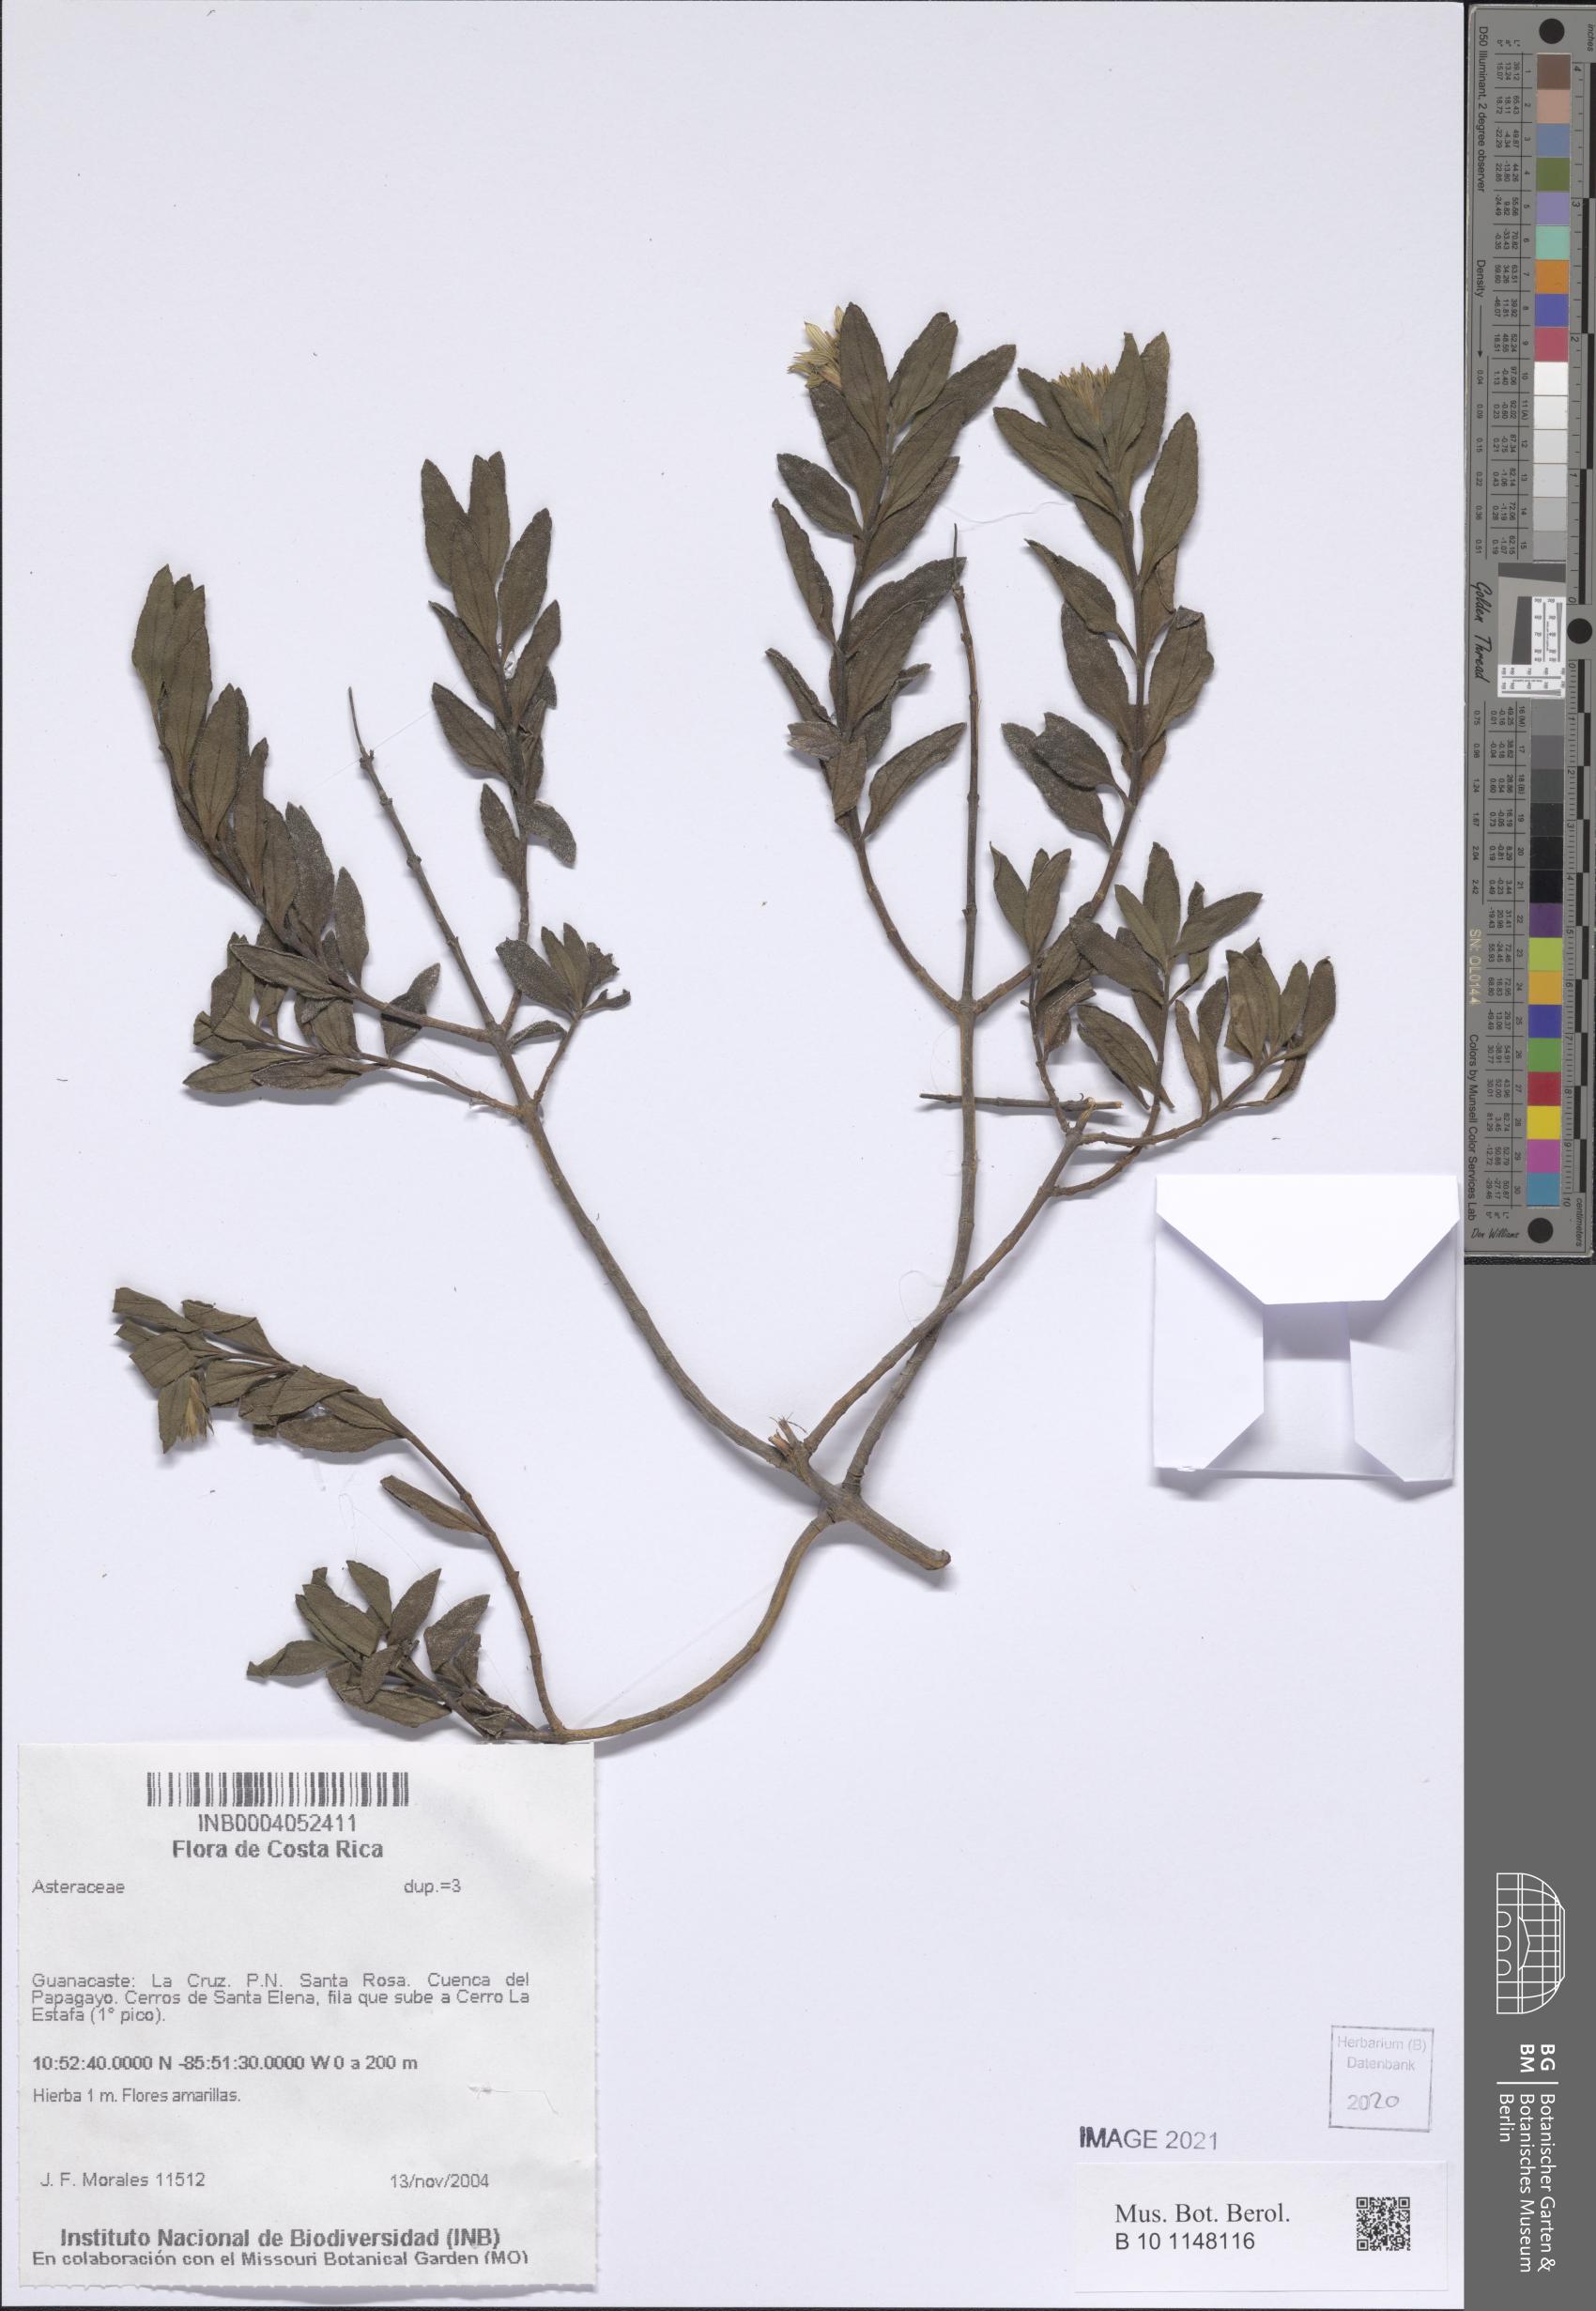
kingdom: Plantae
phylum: Tracheophyta
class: Magnoliopsida
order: Asterales
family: Asteraceae
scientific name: Asteraceae
